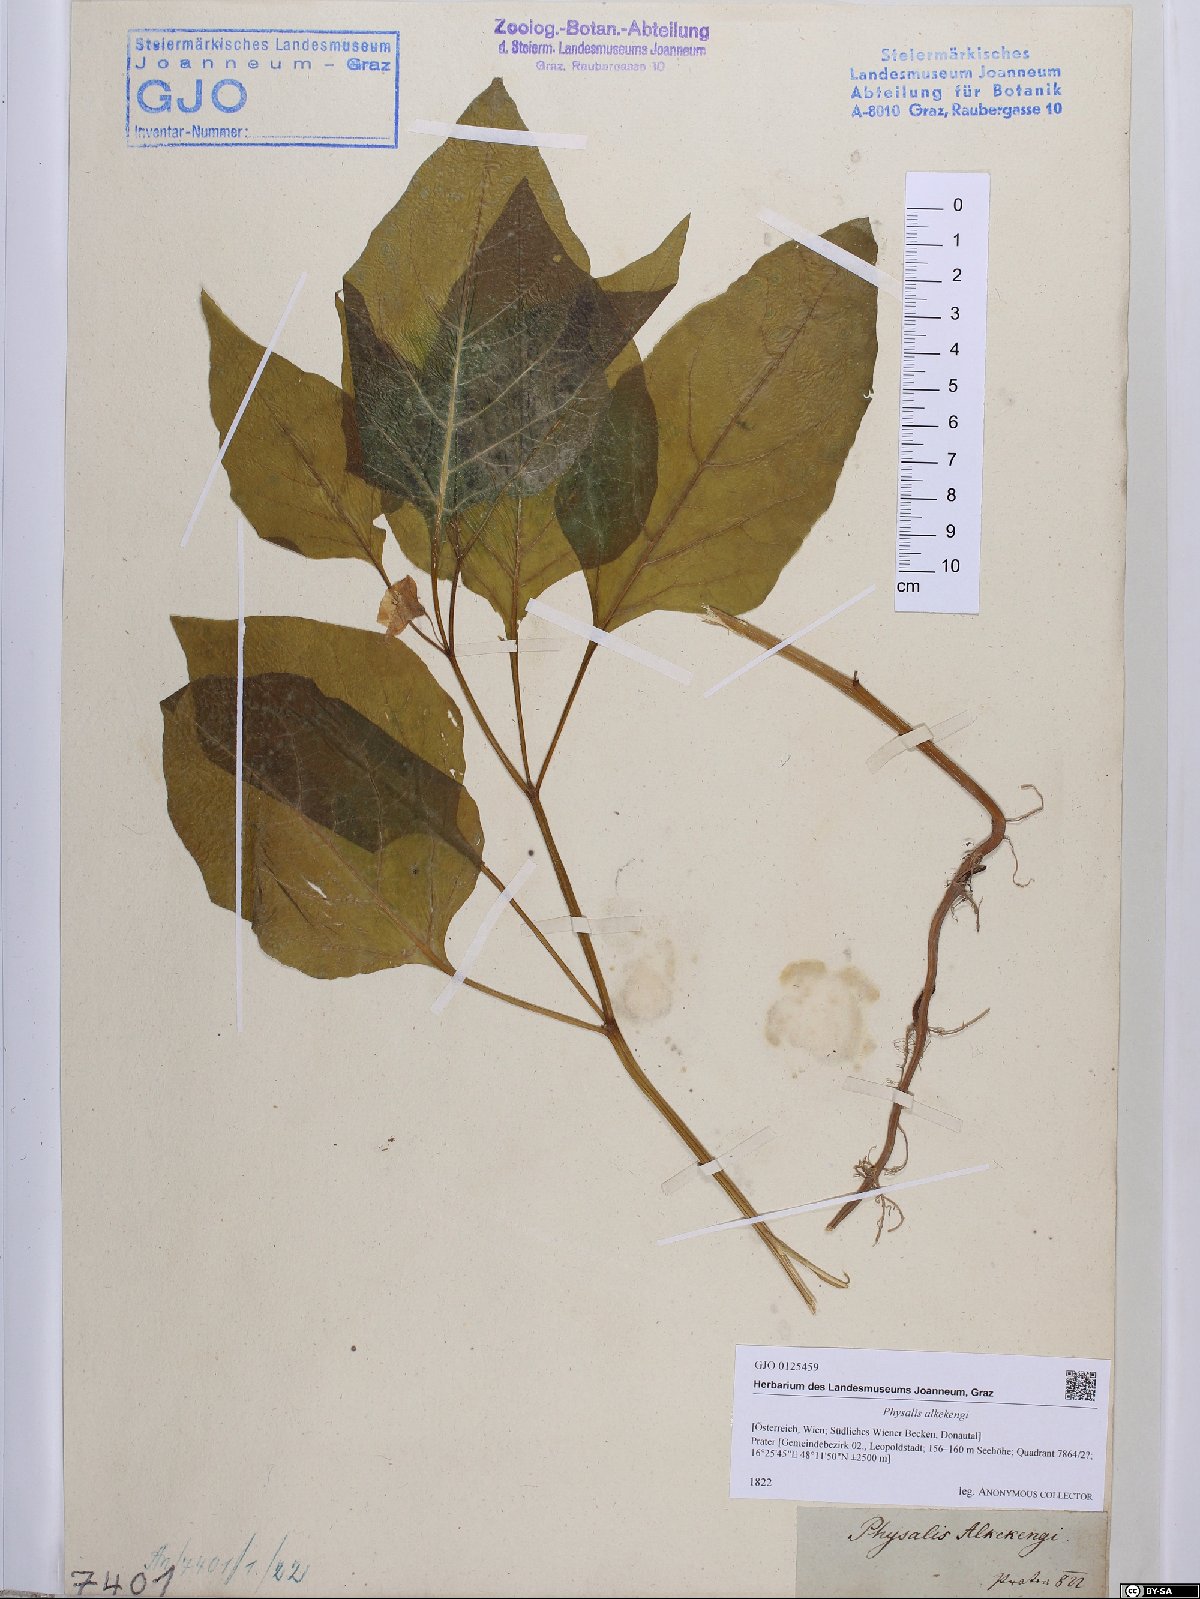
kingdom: Plantae
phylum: Tracheophyta
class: Magnoliopsida
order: Solanales
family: Solanaceae
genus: Alkekengi
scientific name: Alkekengi officinarum
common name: Japanese-lantern
